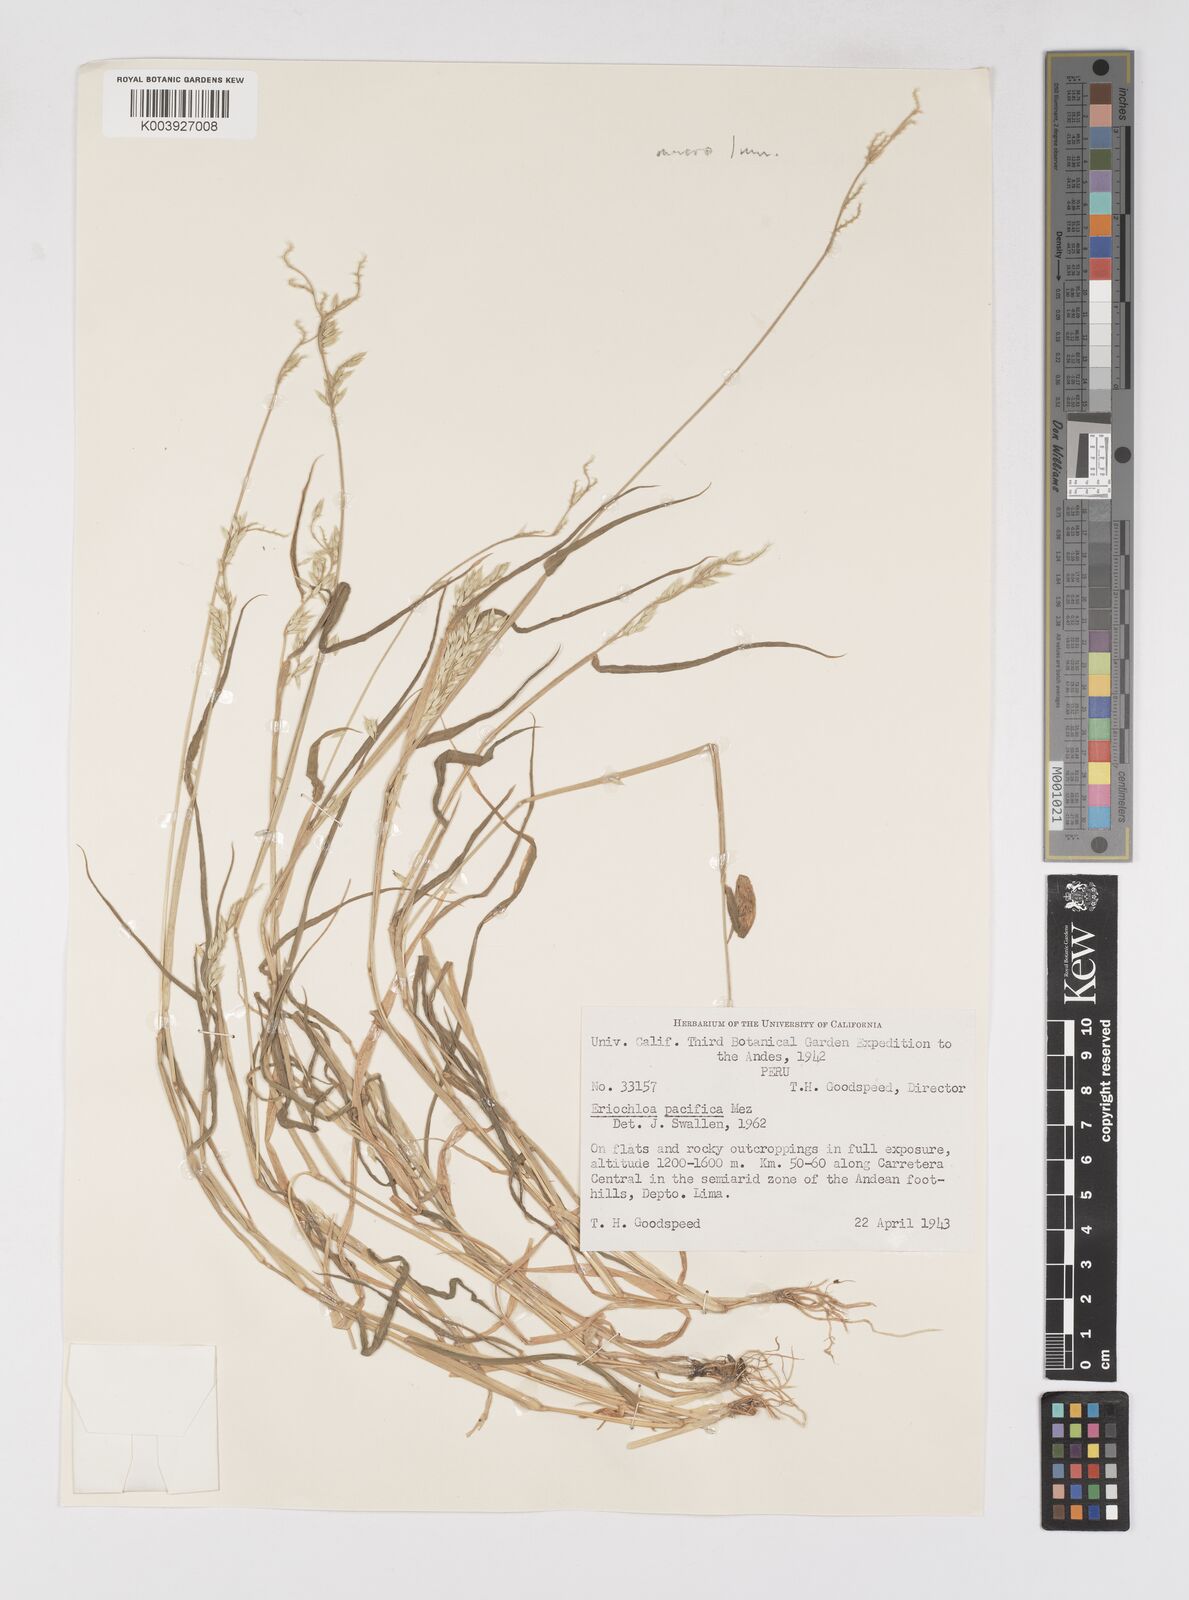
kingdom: Plantae
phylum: Tracheophyta
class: Liliopsida
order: Poales
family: Poaceae
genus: Eriochloa
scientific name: Eriochloa pacifica
